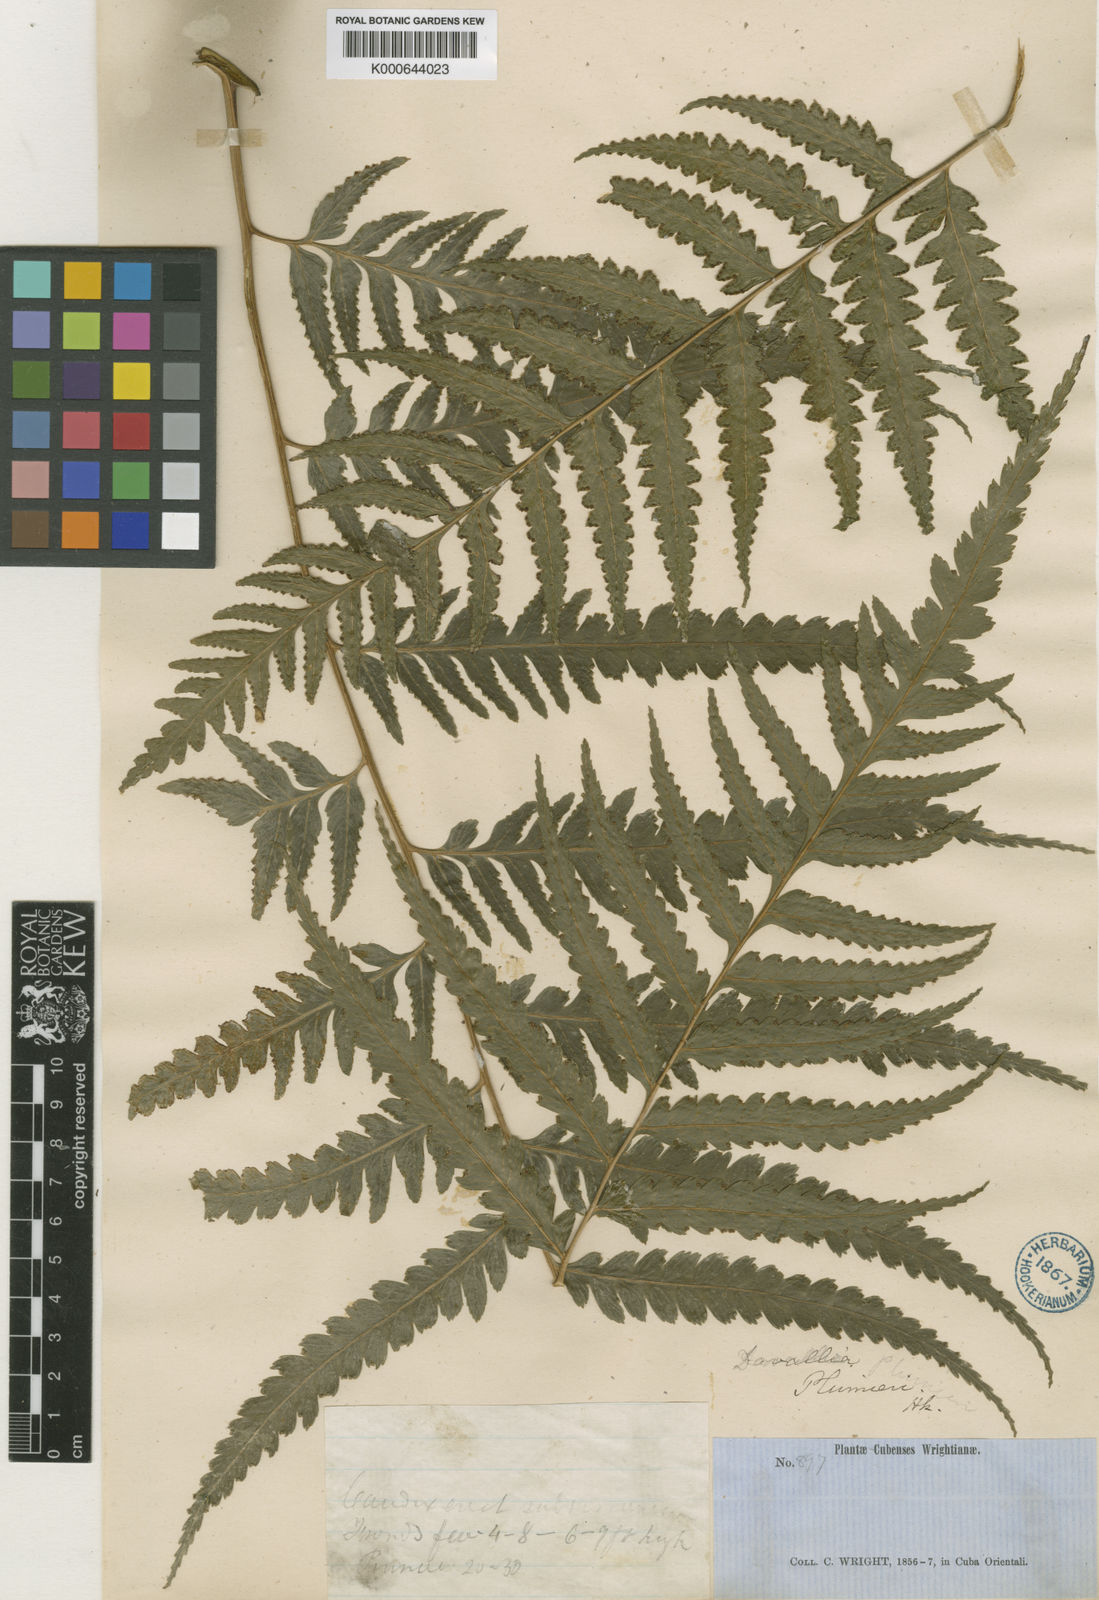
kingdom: Plantae
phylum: Tracheophyta
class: Polypodiopsida
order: Polypodiales
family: Saccolomataceae
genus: Saccoloma
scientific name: Saccoloma domingense
